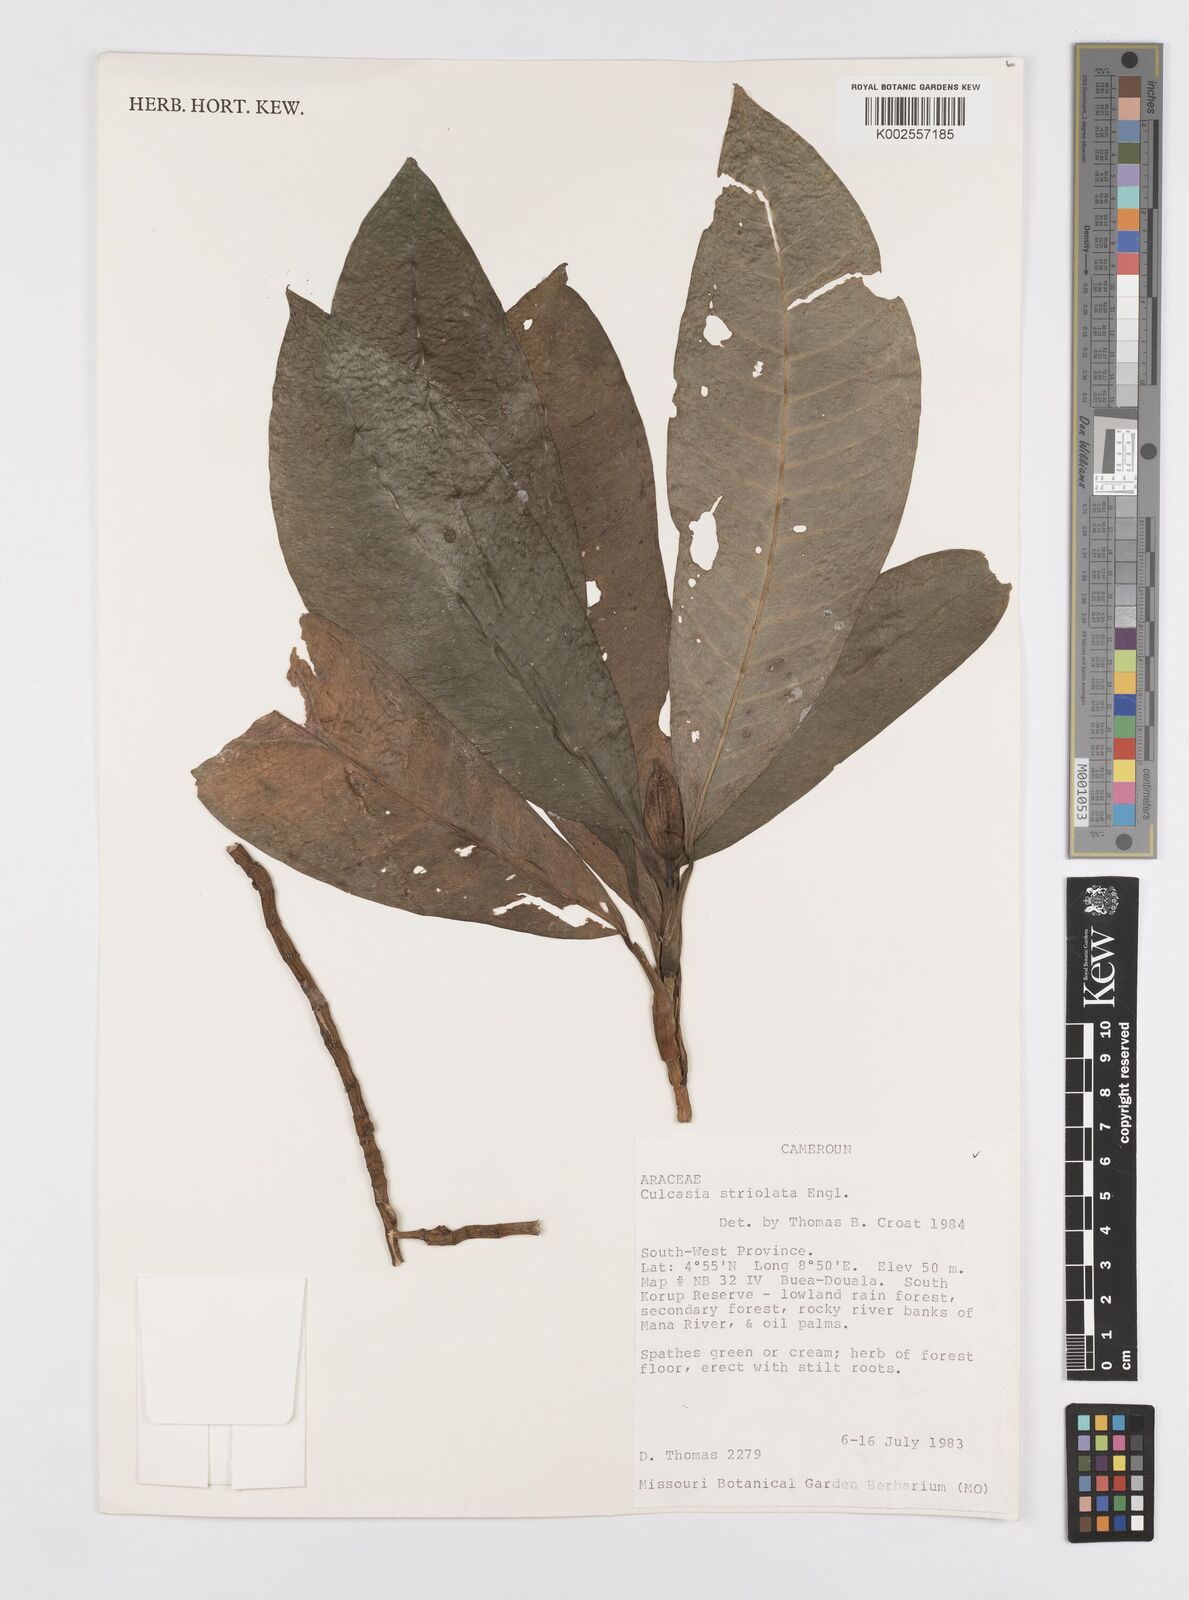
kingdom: Plantae
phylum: Tracheophyta
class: Liliopsida
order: Alismatales
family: Araceae
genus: Culcasia
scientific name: Culcasia striolata
